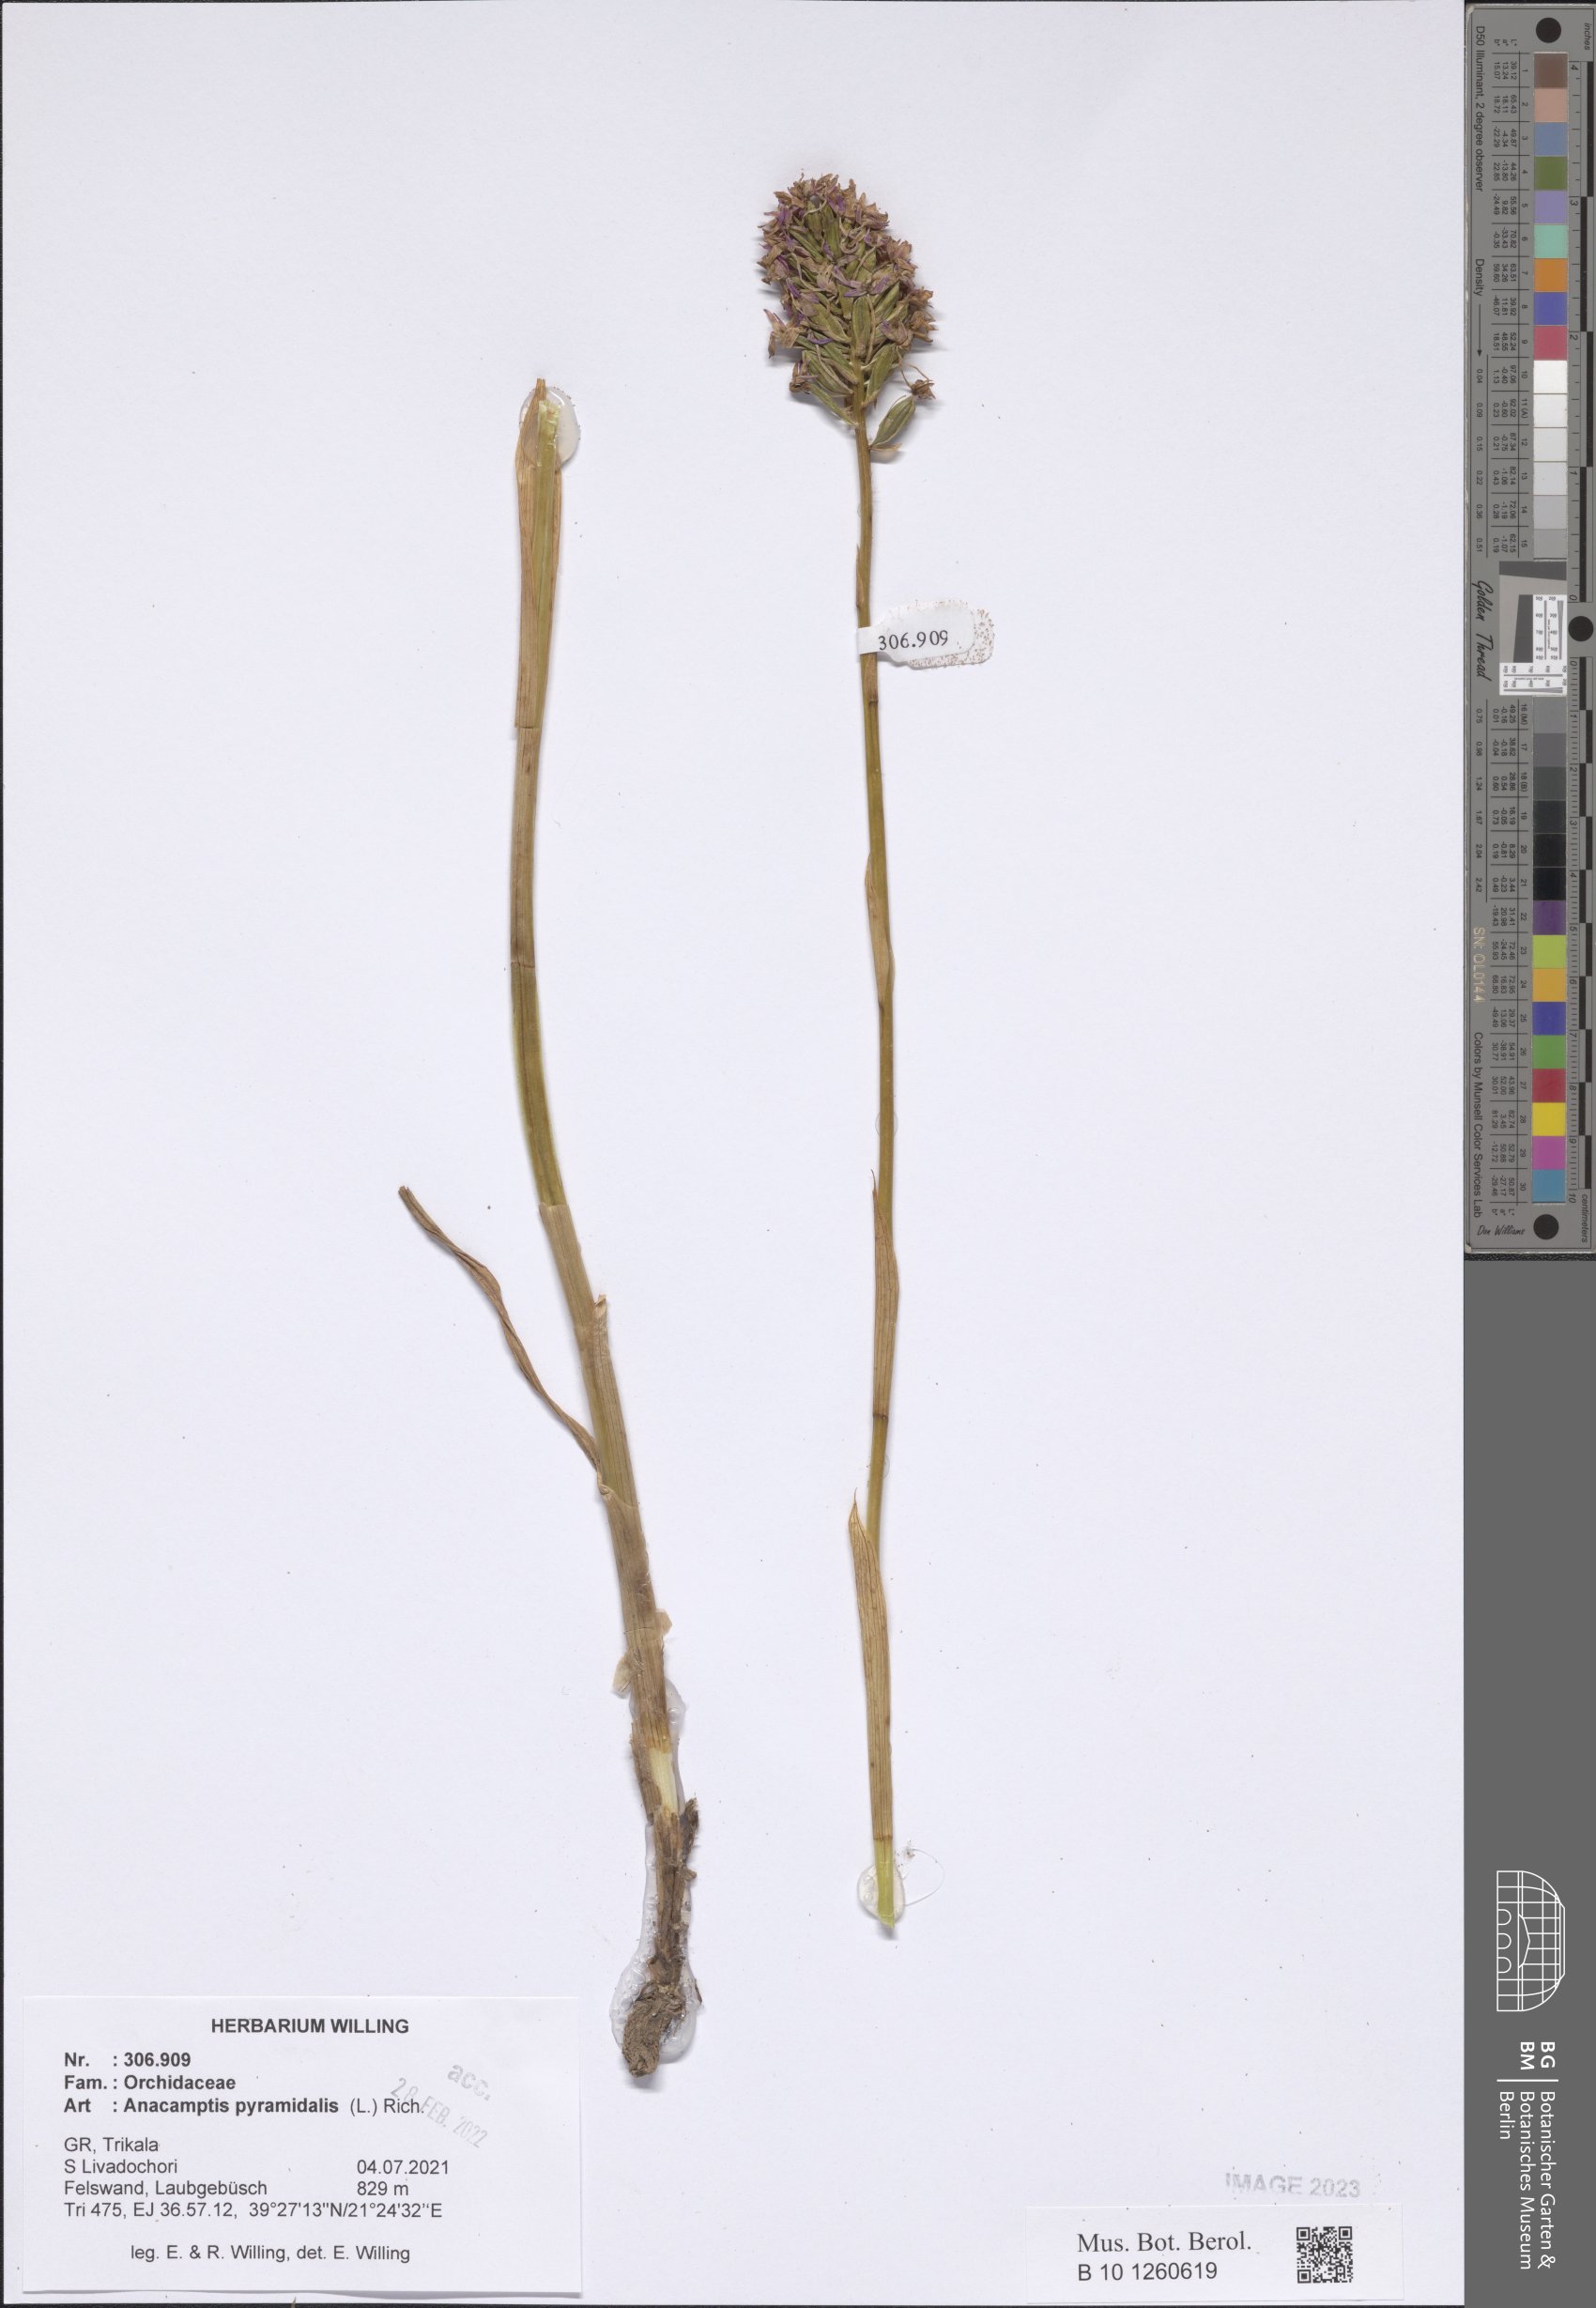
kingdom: Plantae
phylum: Tracheophyta
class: Liliopsida
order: Asparagales
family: Orchidaceae
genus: Anacamptis
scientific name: Anacamptis pyramidalis
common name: Pyramidal orchid
